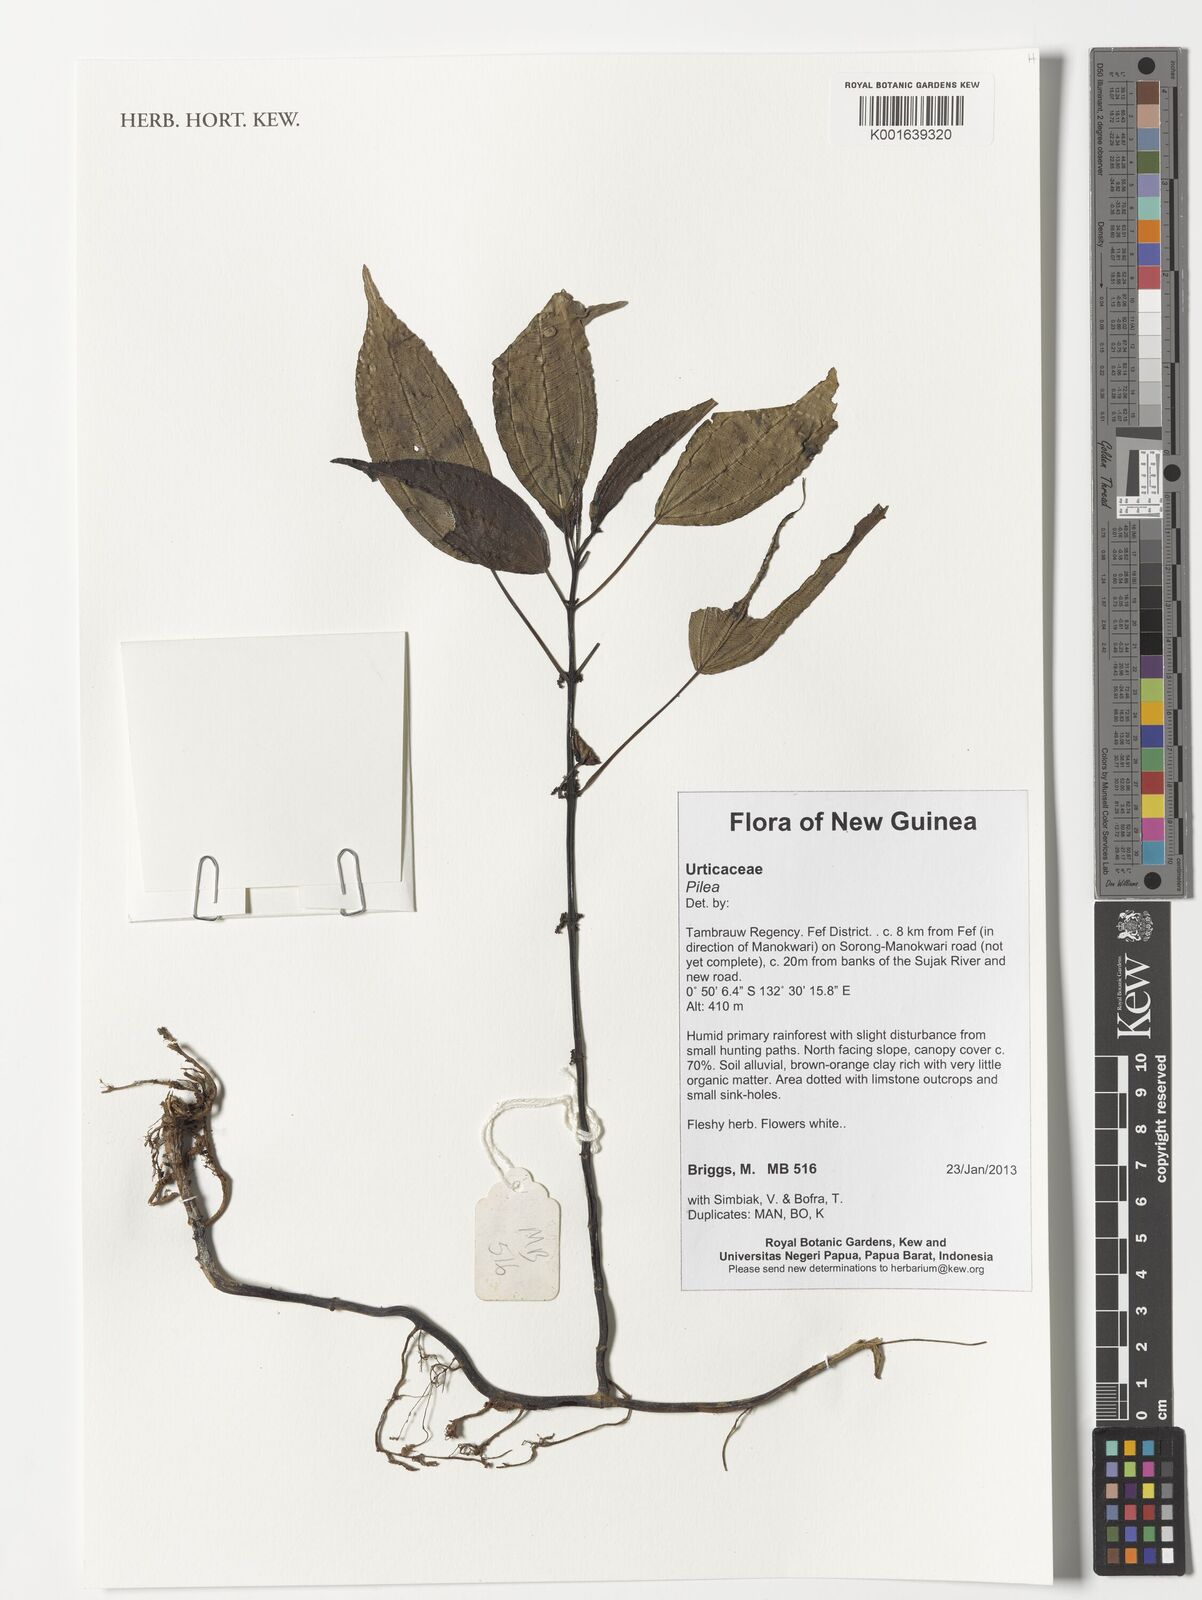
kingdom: Plantae
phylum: Tracheophyta
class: Magnoliopsida
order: Rosales
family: Urticaceae
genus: Pilea
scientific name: Pilea
